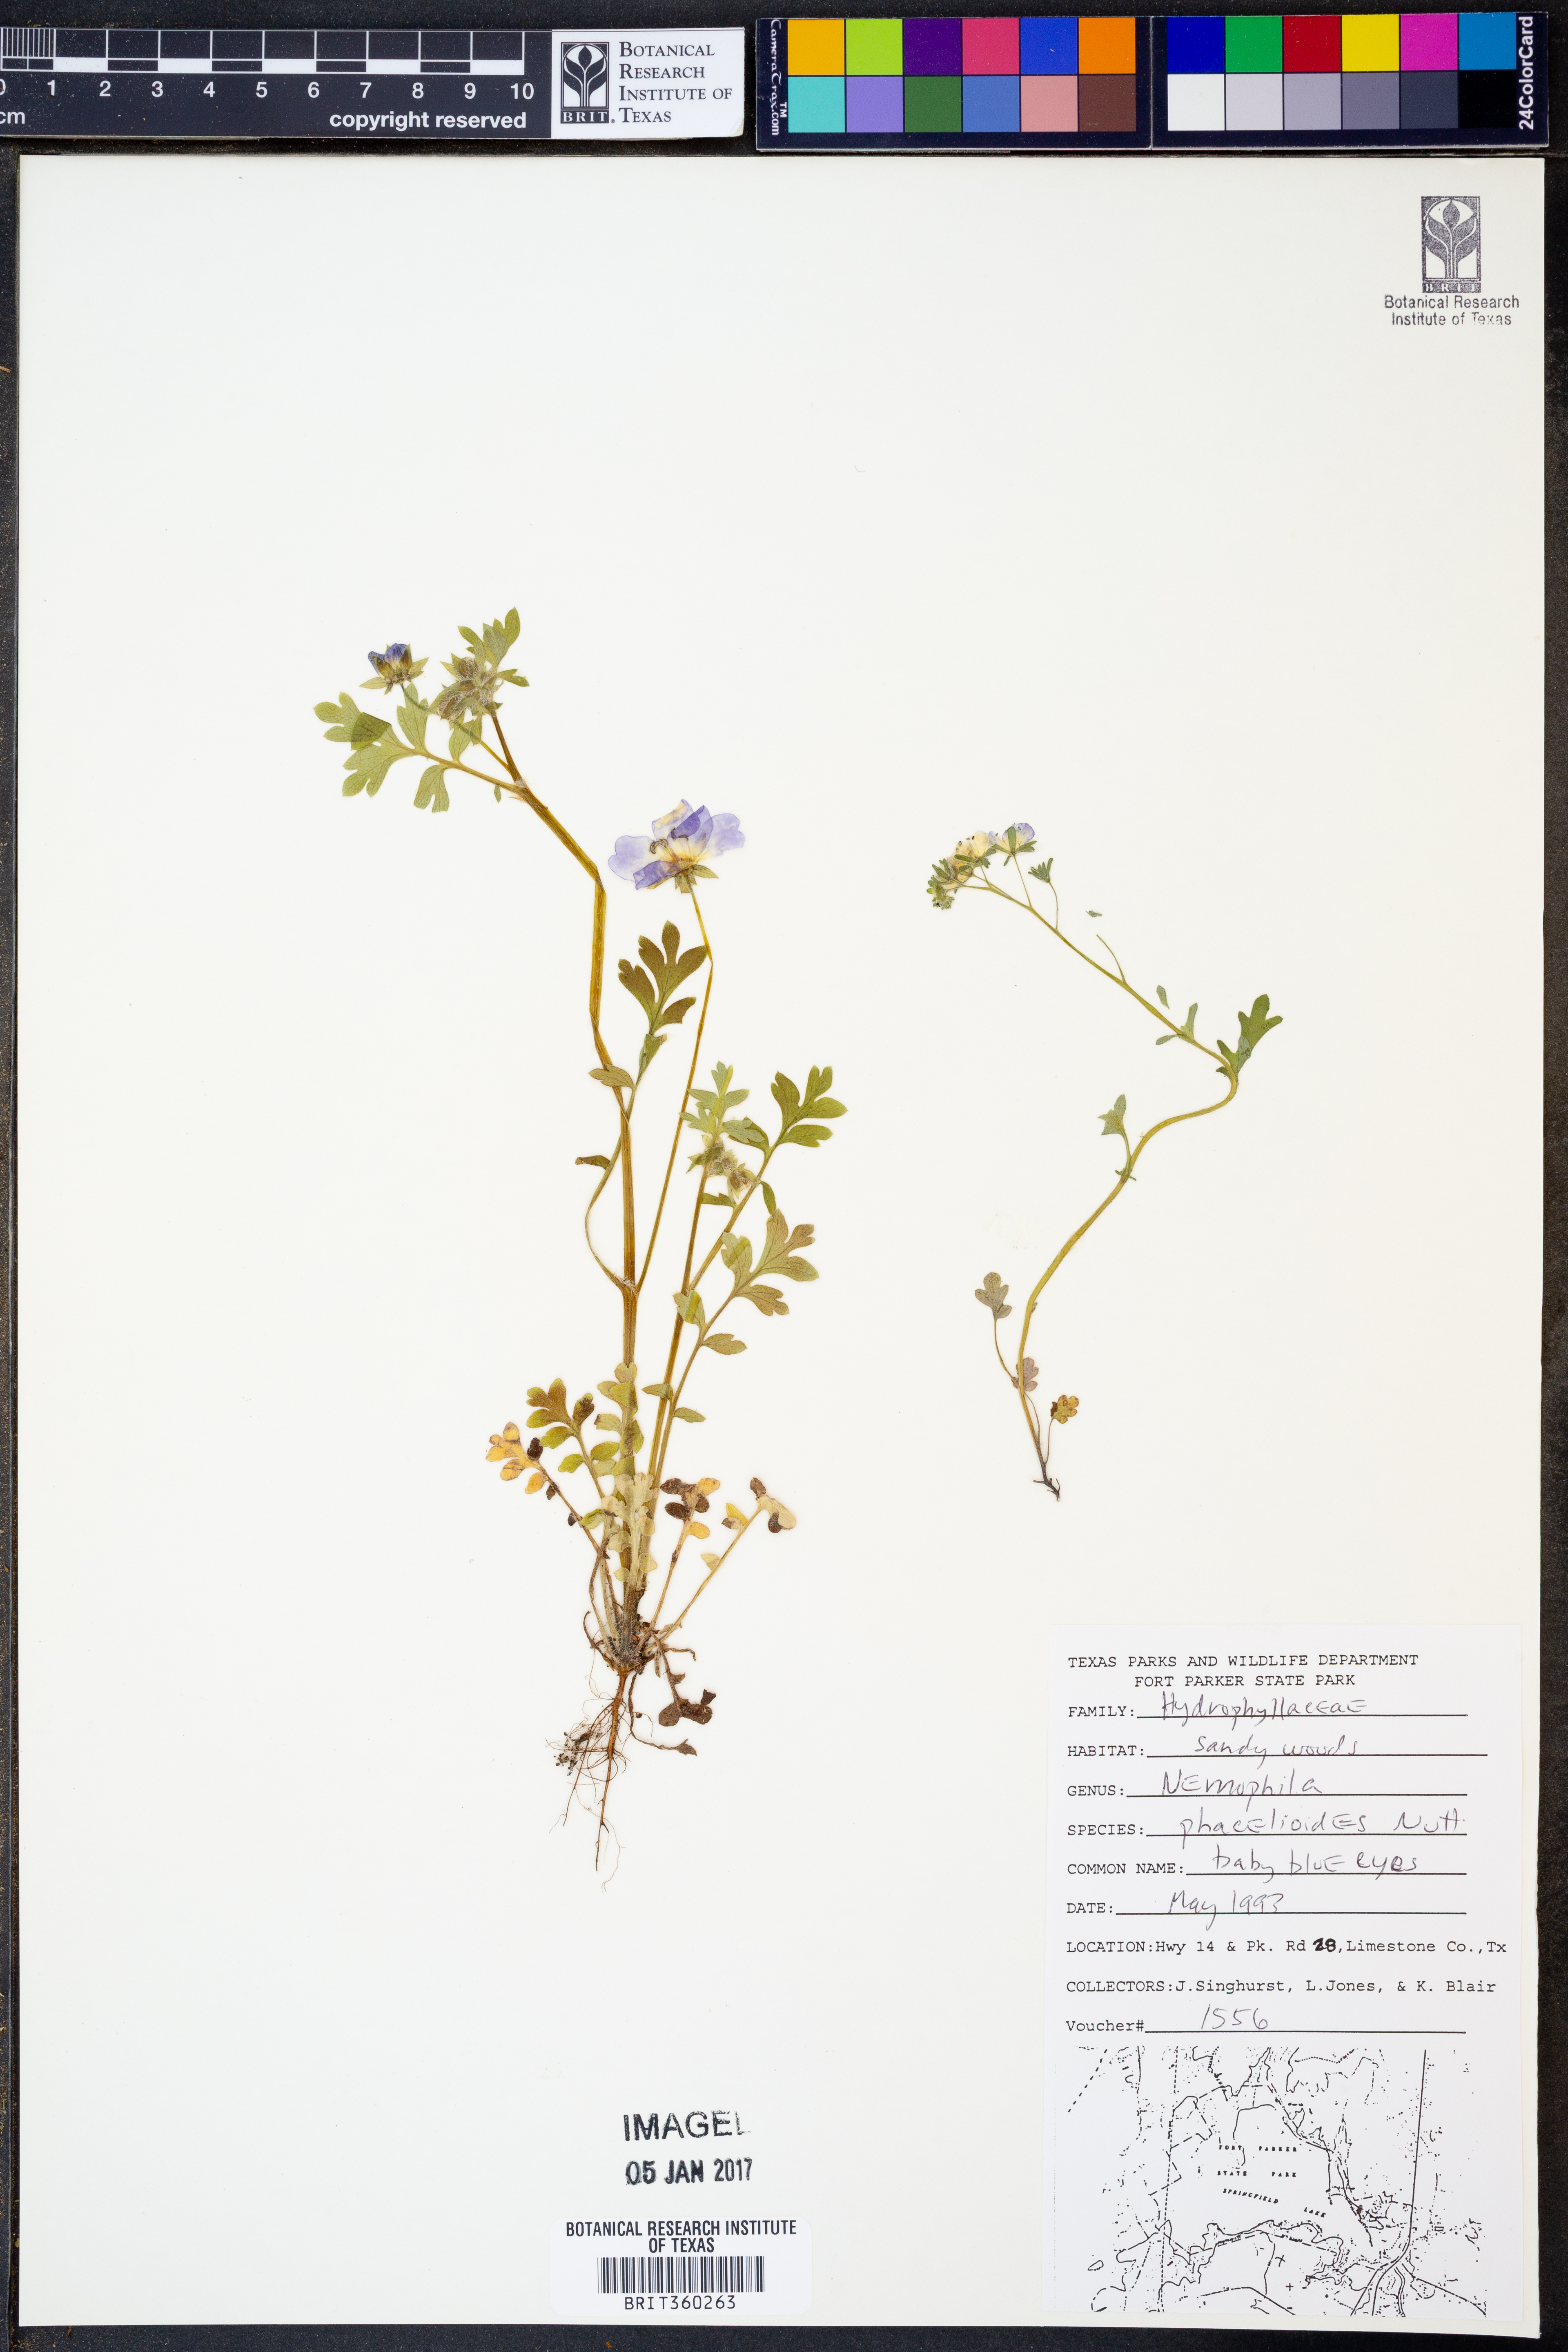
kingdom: Plantae
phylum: Tracheophyta
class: Magnoliopsida
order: Boraginales
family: Hydrophyllaceae
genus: Nemophila
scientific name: Nemophila phacelioides
